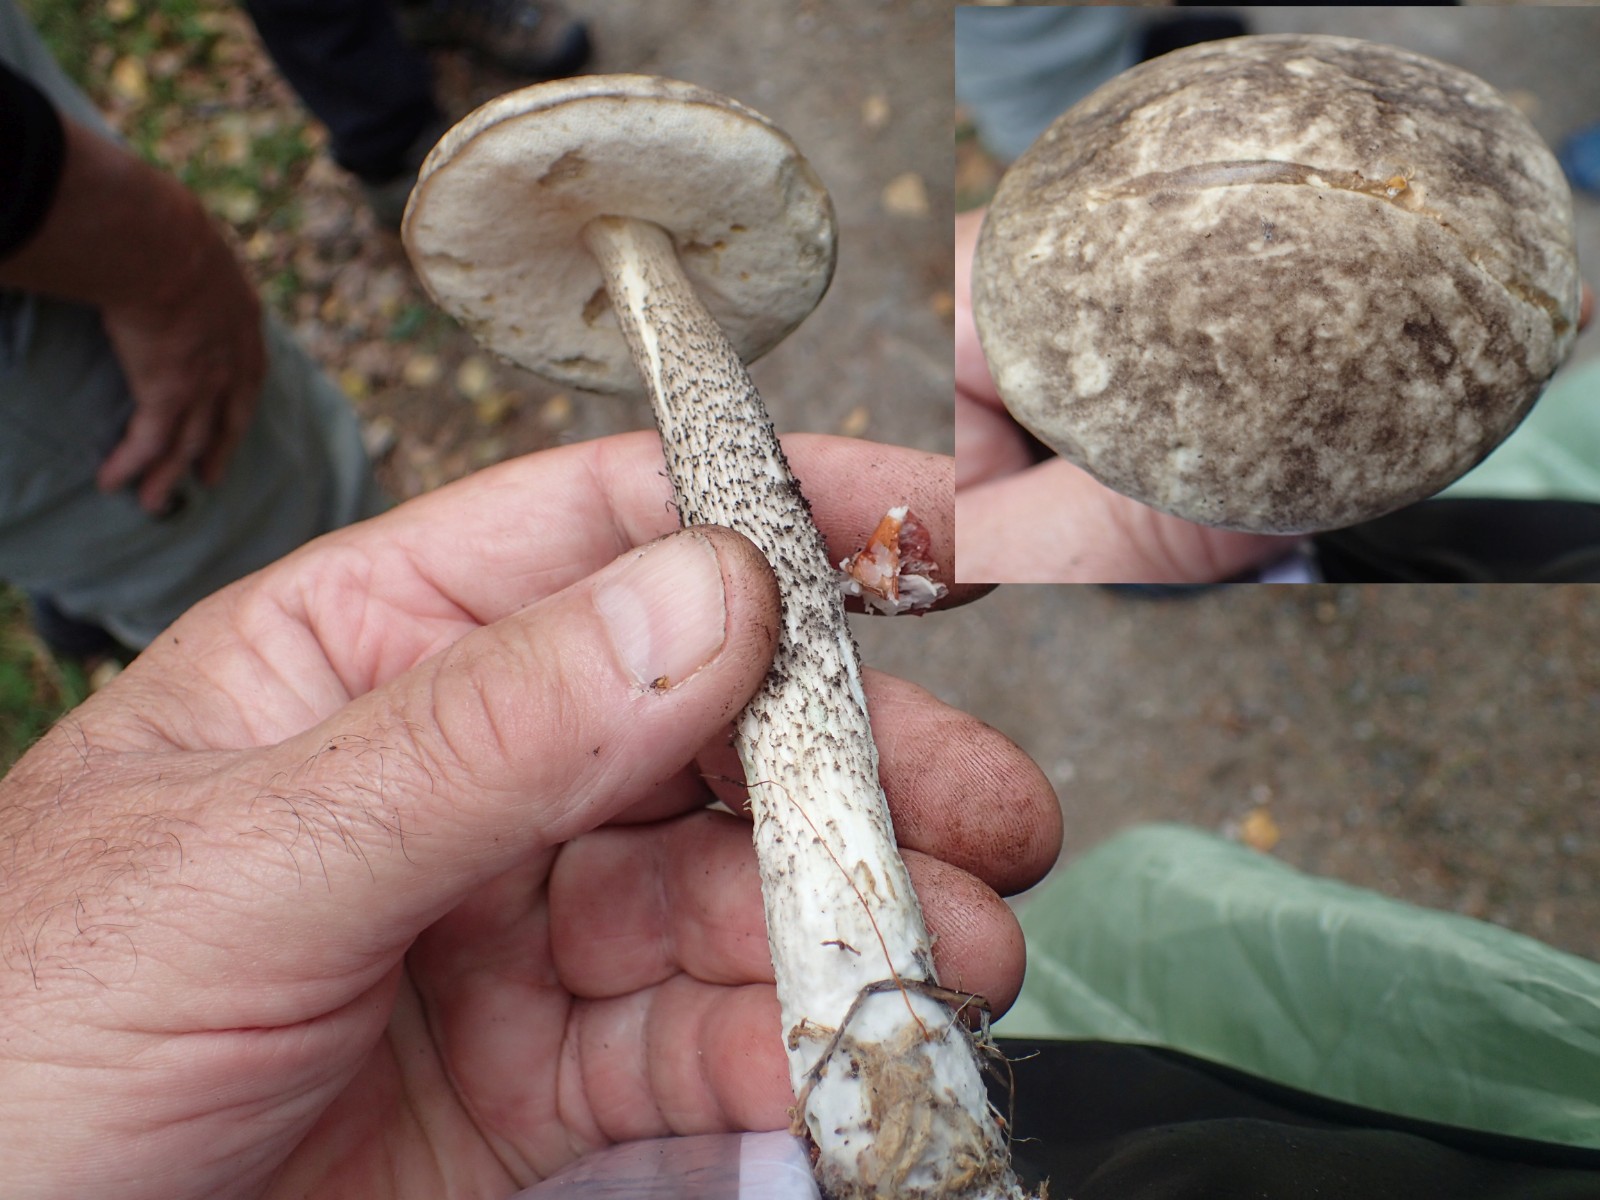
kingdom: Fungi
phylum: Basidiomycota
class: Agaricomycetes
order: Boletales
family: Boletaceae
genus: Leccinum
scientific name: Leccinum variicolor
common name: flammet skælrørhat
